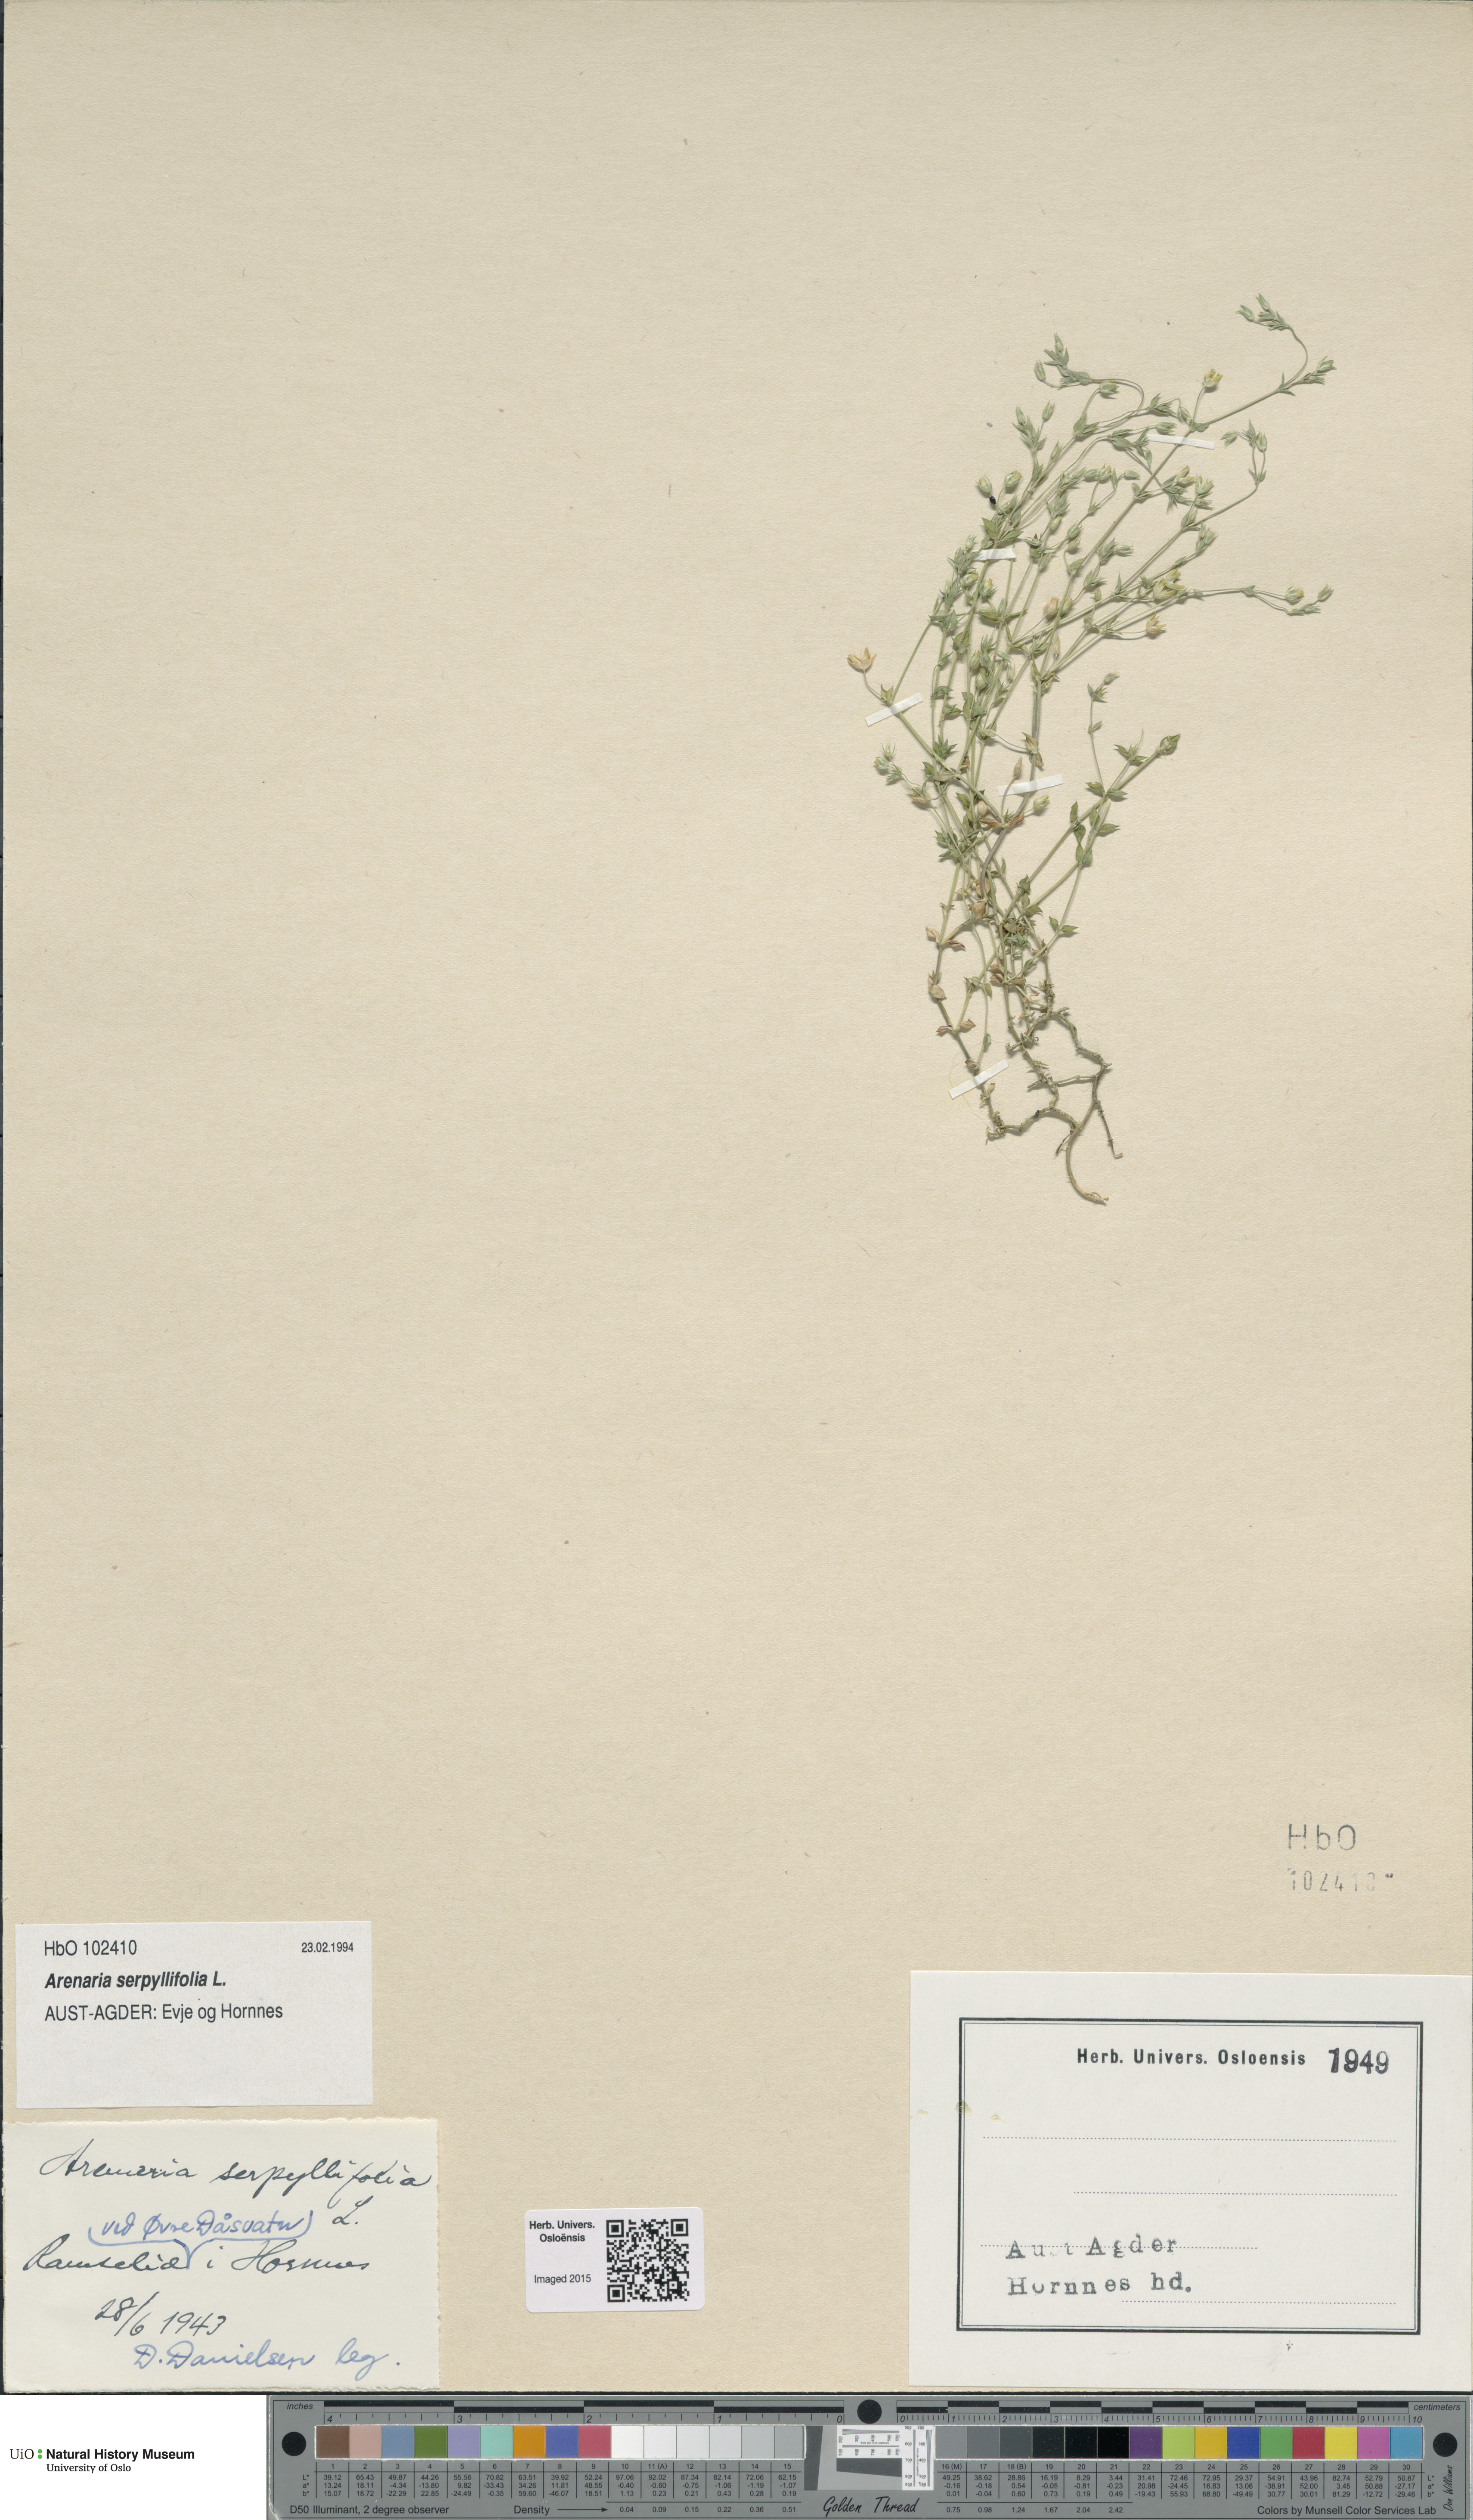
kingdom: Plantae
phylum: Tracheophyta
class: Magnoliopsida
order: Caryophyllales
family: Caryophyllaceae
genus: Arenaria
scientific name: Arenaria serpyllifolia
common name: Thyme-leaved sandwort
